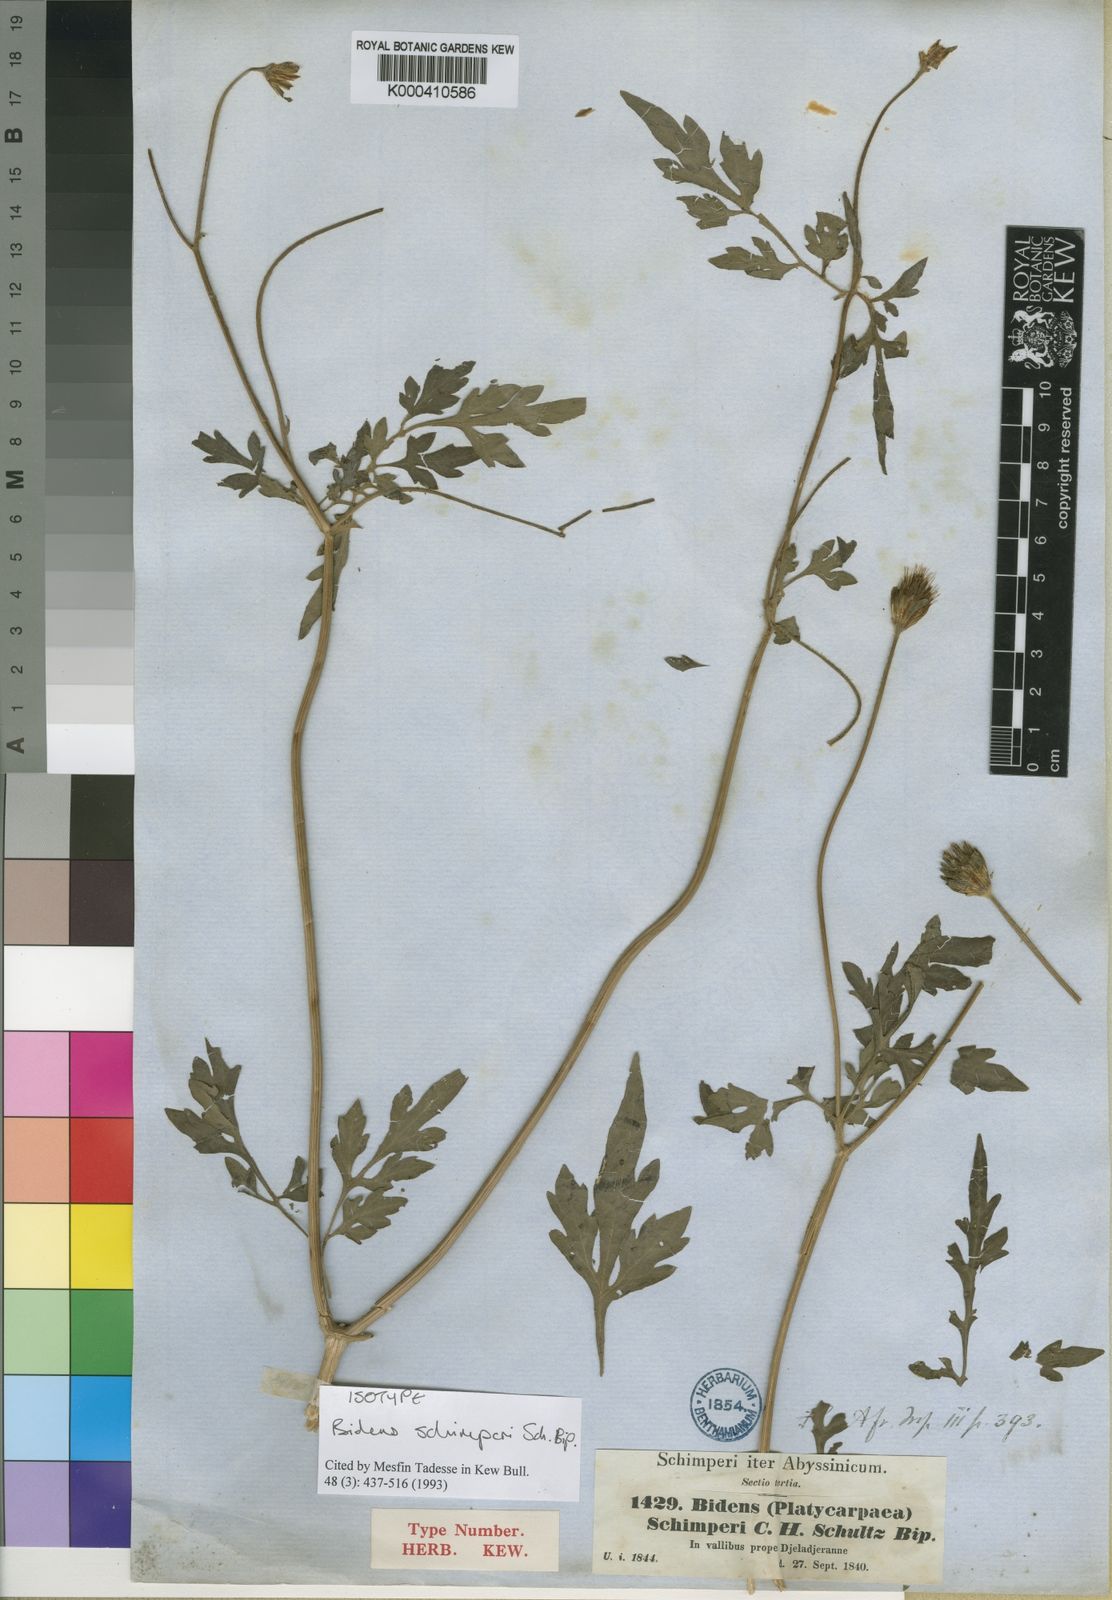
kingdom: Plantae
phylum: Tracheophyta
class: Magnoliopsida
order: Asterales
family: Asteraceae
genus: Bidens
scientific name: Bidens schimperi
